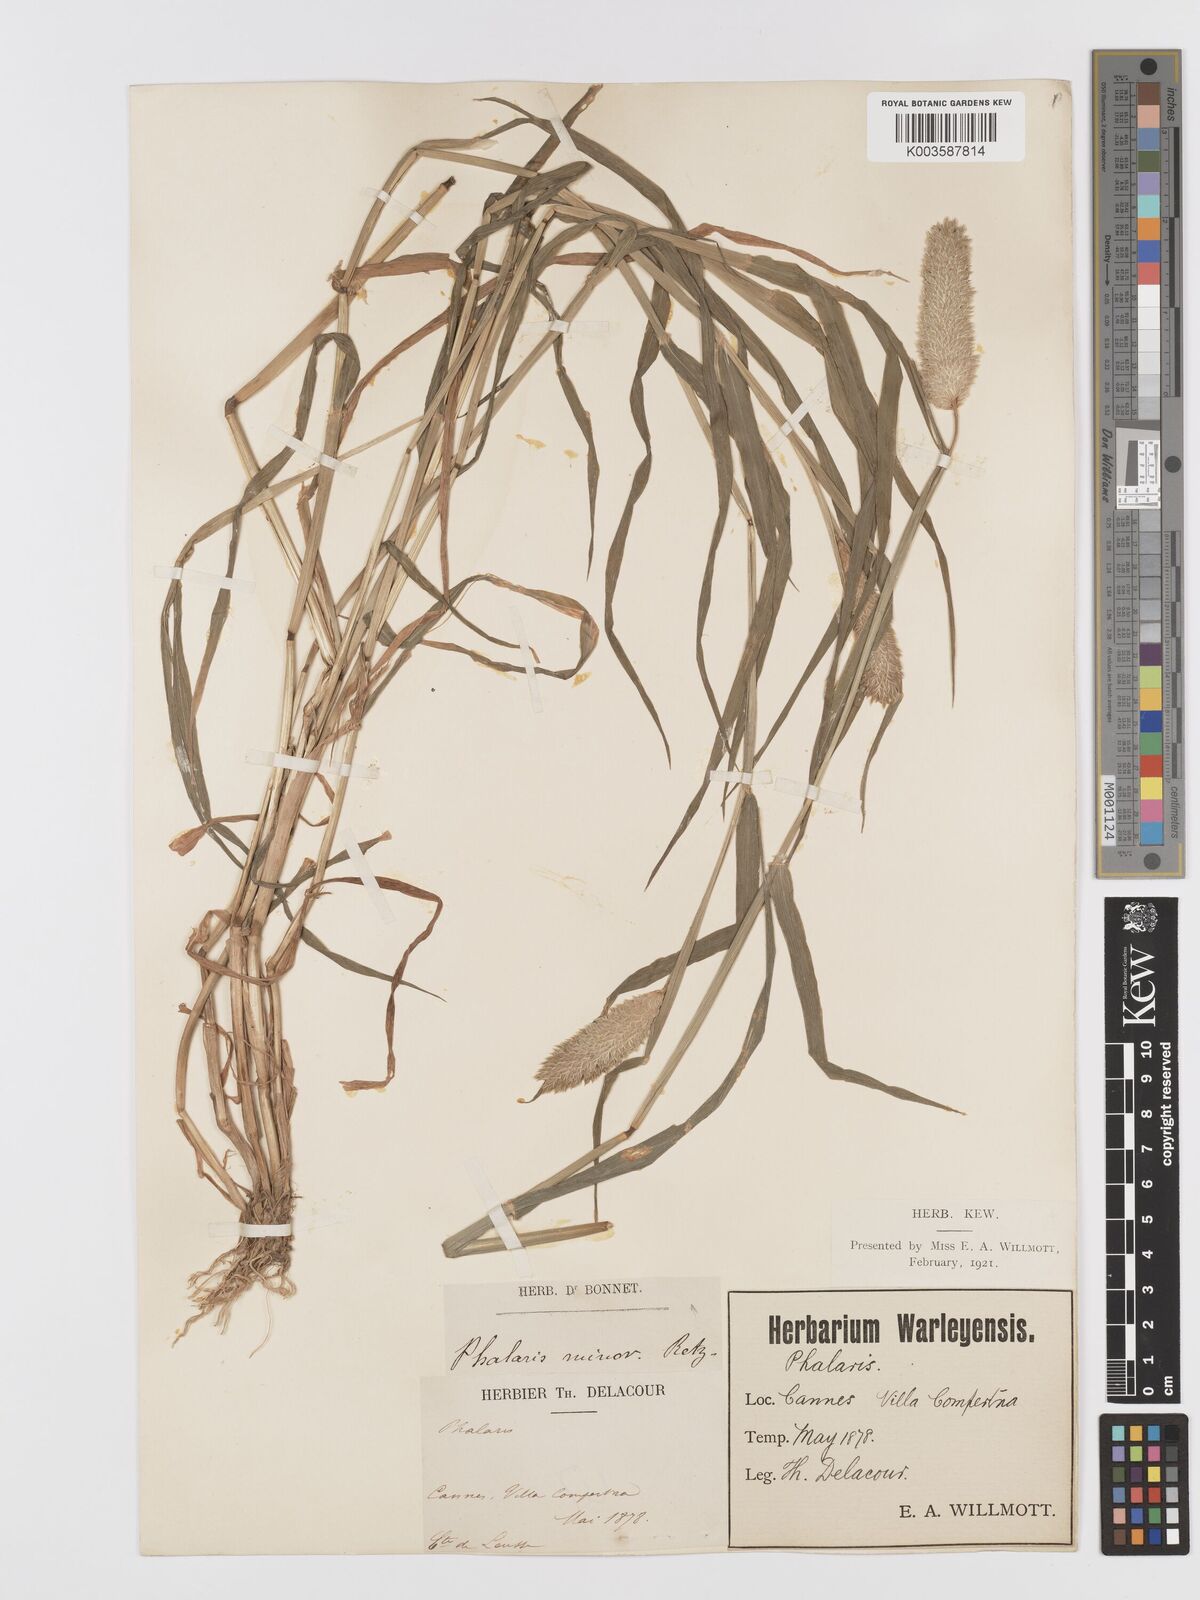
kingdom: Plantae
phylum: Tracheophyta
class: Liliopsida
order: Poales
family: Poaceae
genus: Phalaris
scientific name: Phalaris minor
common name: Littleseed canarygrass
